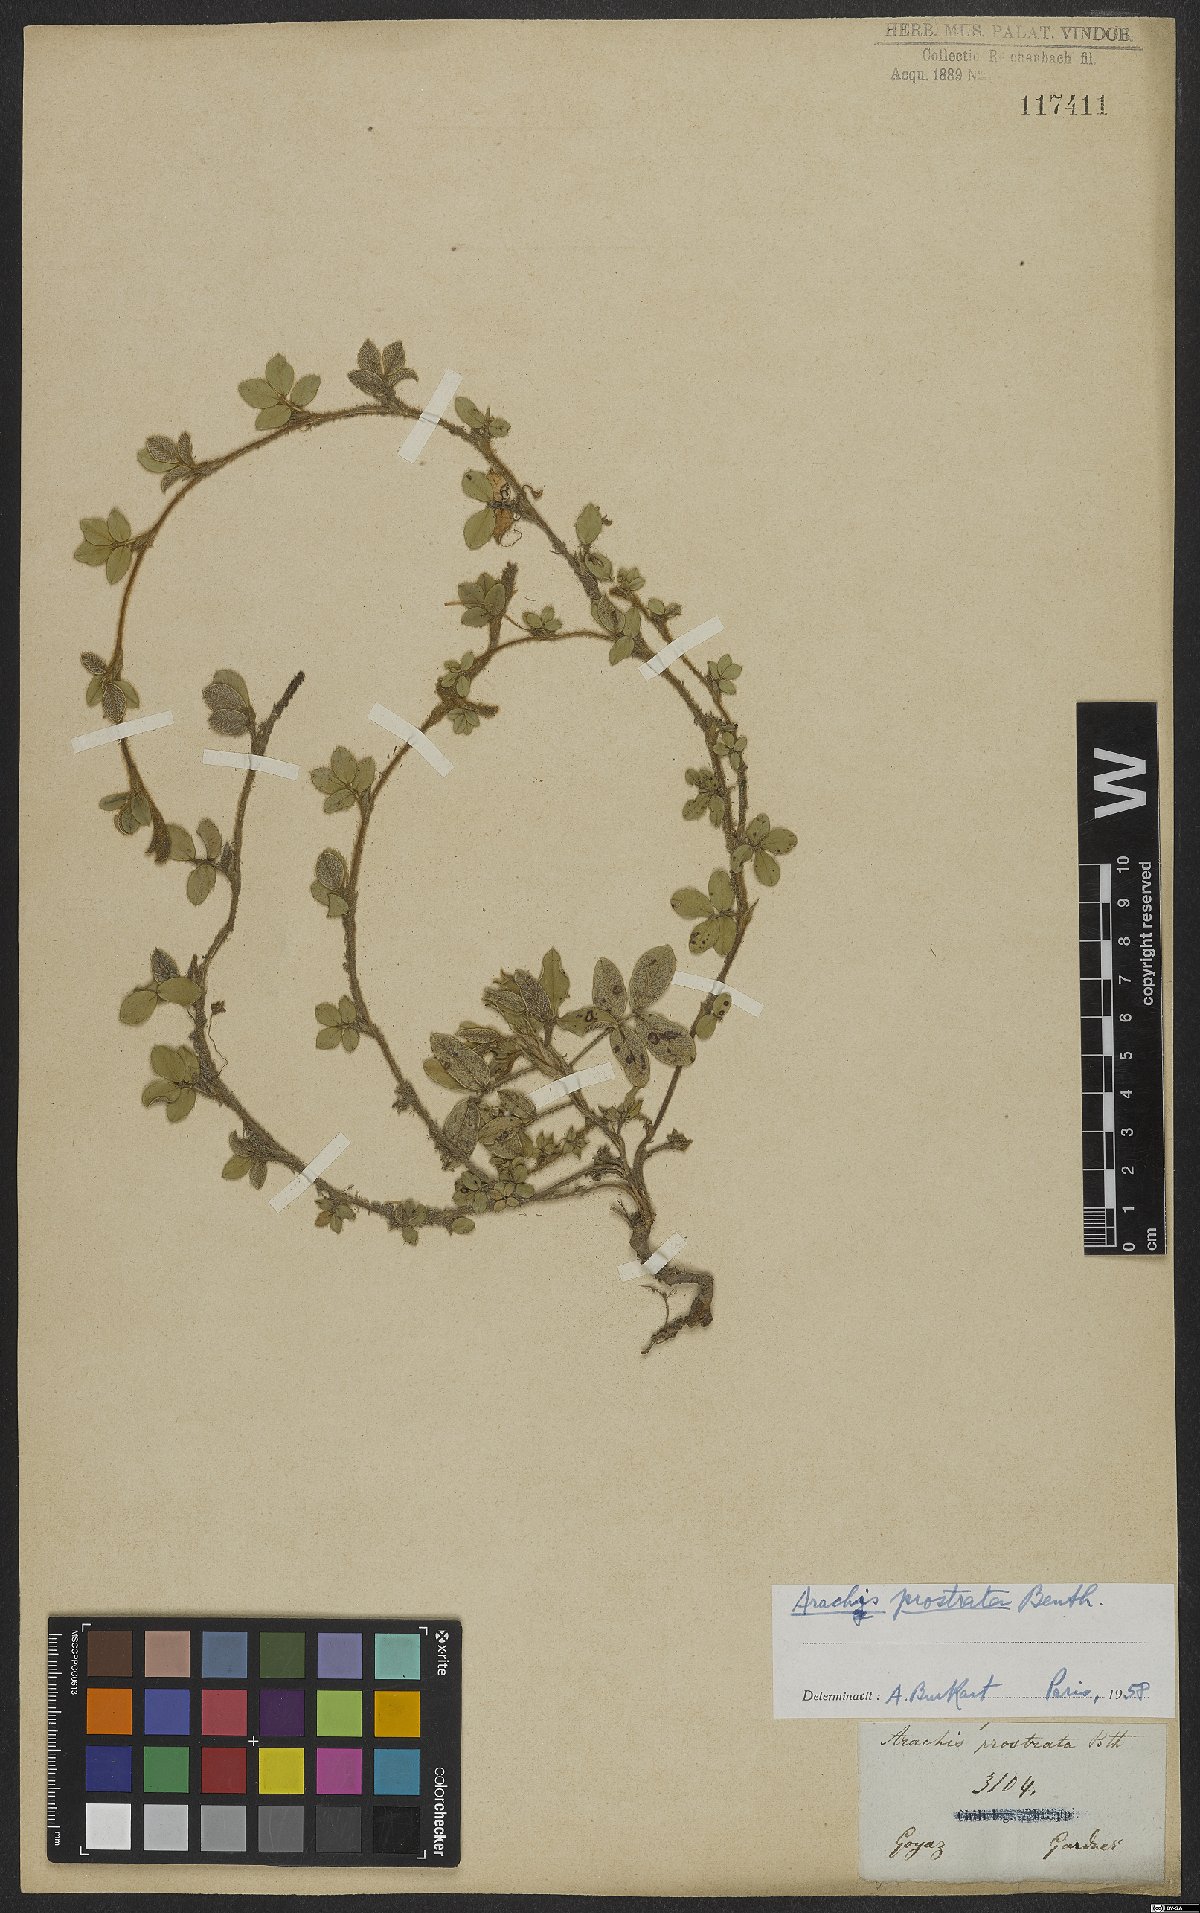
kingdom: Plantae
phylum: Tracheophyta
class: Magnoliopsida
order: Fabales
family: Fabaceae
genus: Arachis
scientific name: Arachis prostrata
